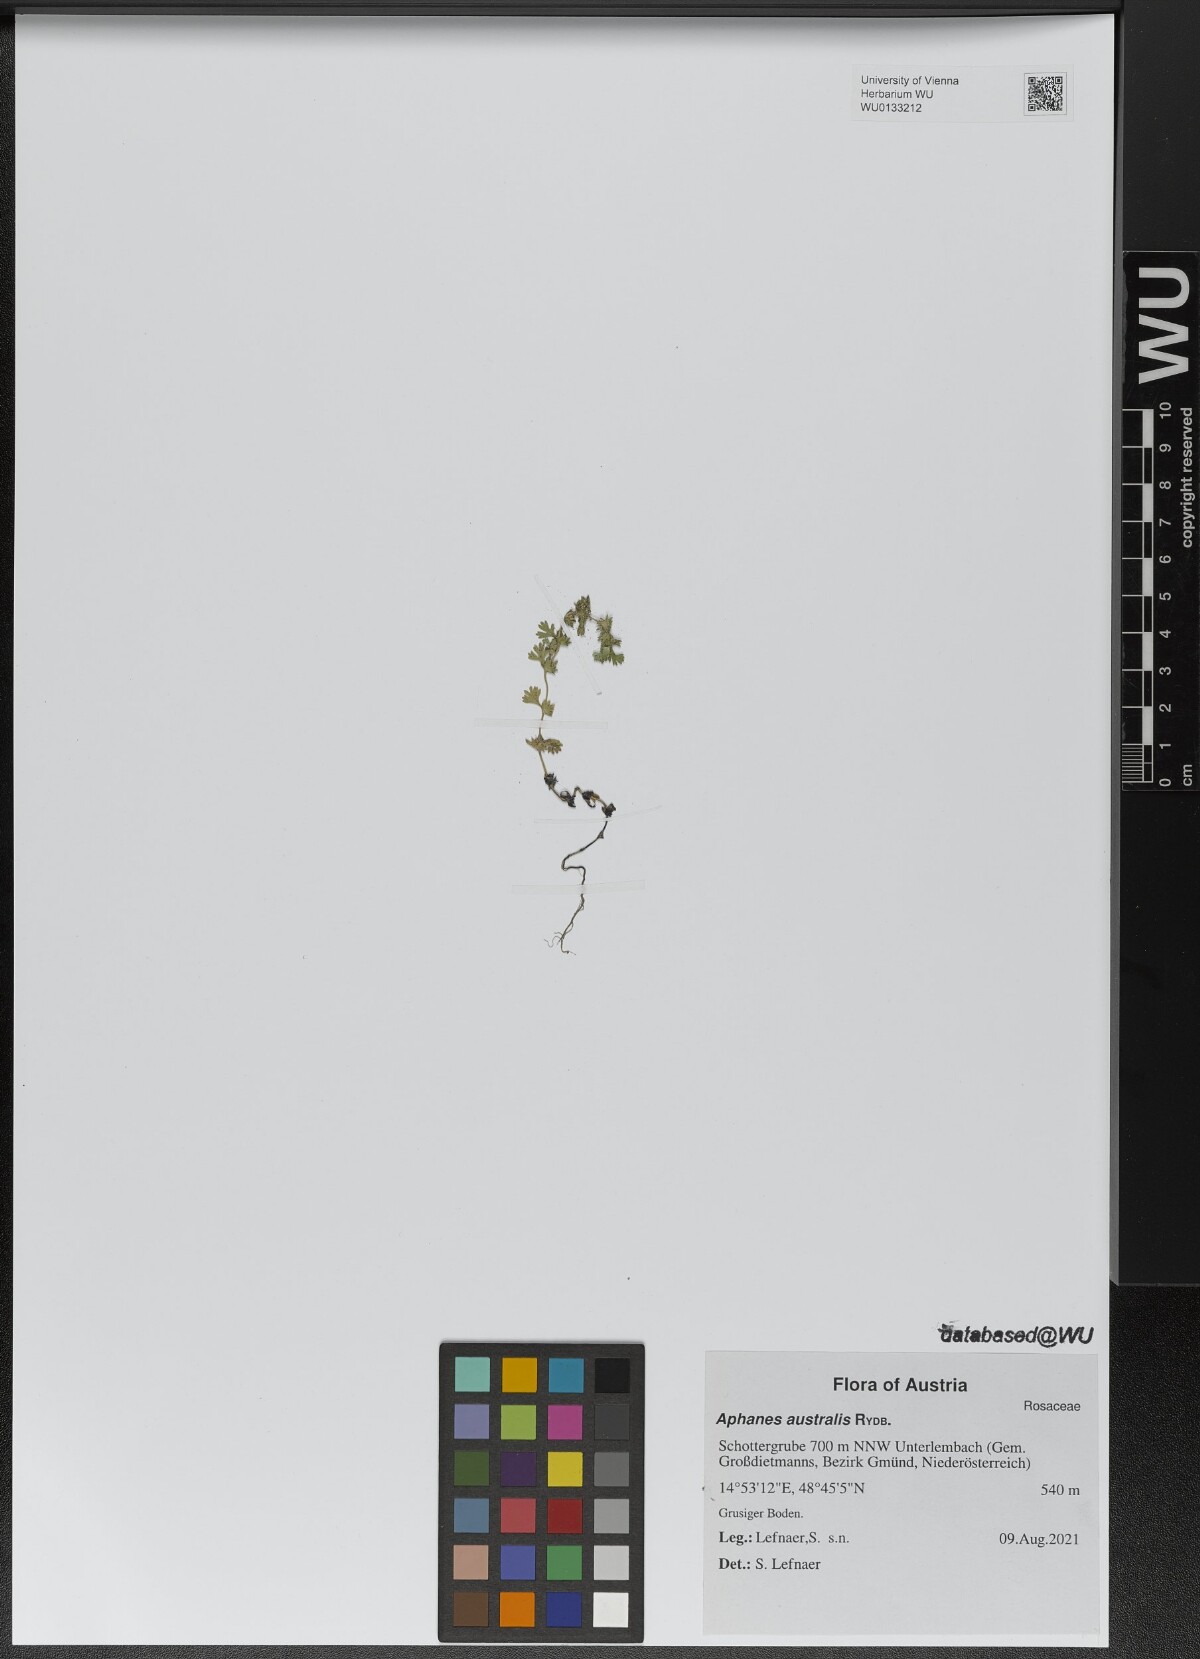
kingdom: Plantae
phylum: Tracheophyta
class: Magnoliopsida
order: Rosales
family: Rosaceae
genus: Aphanes
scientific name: Aphanes australis
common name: Slender parsley-piert
